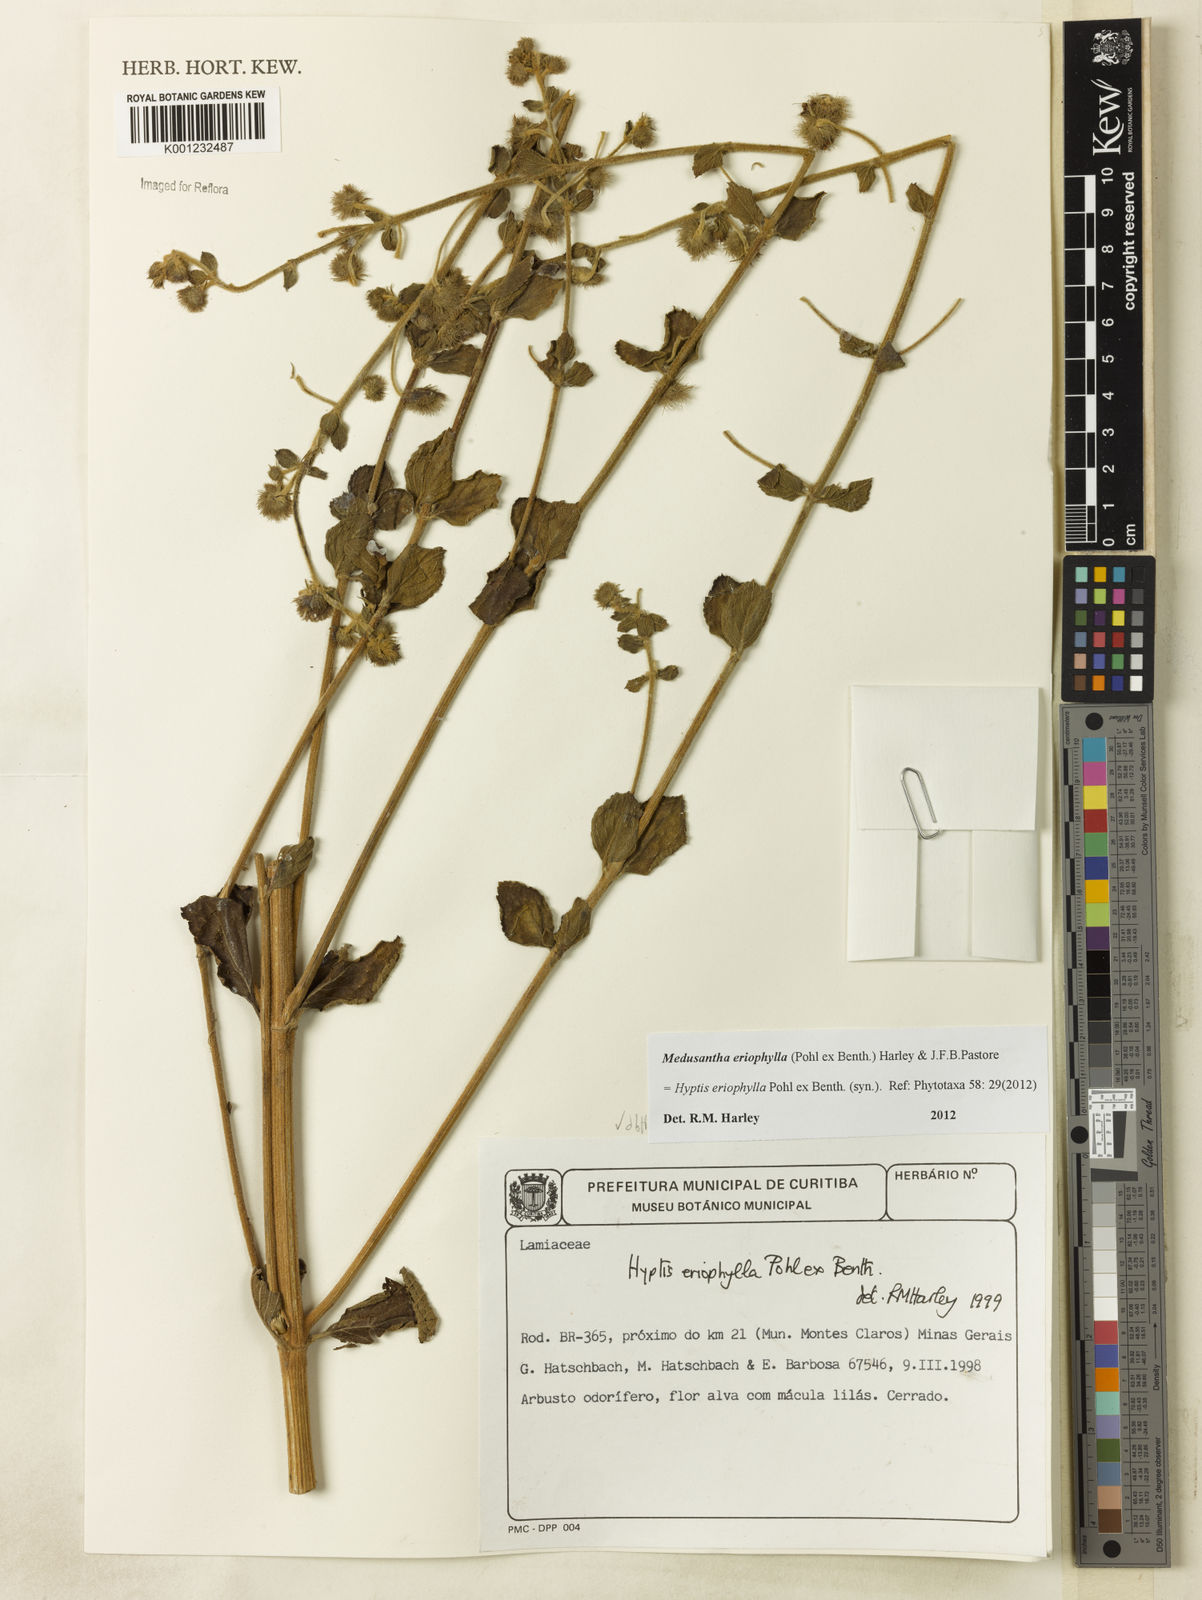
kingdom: Plantae
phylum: Tracheophyta
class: Magnoliopsida
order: Lamiales
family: Lamiaceae
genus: Medusantha
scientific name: Medusantha eriophylla
